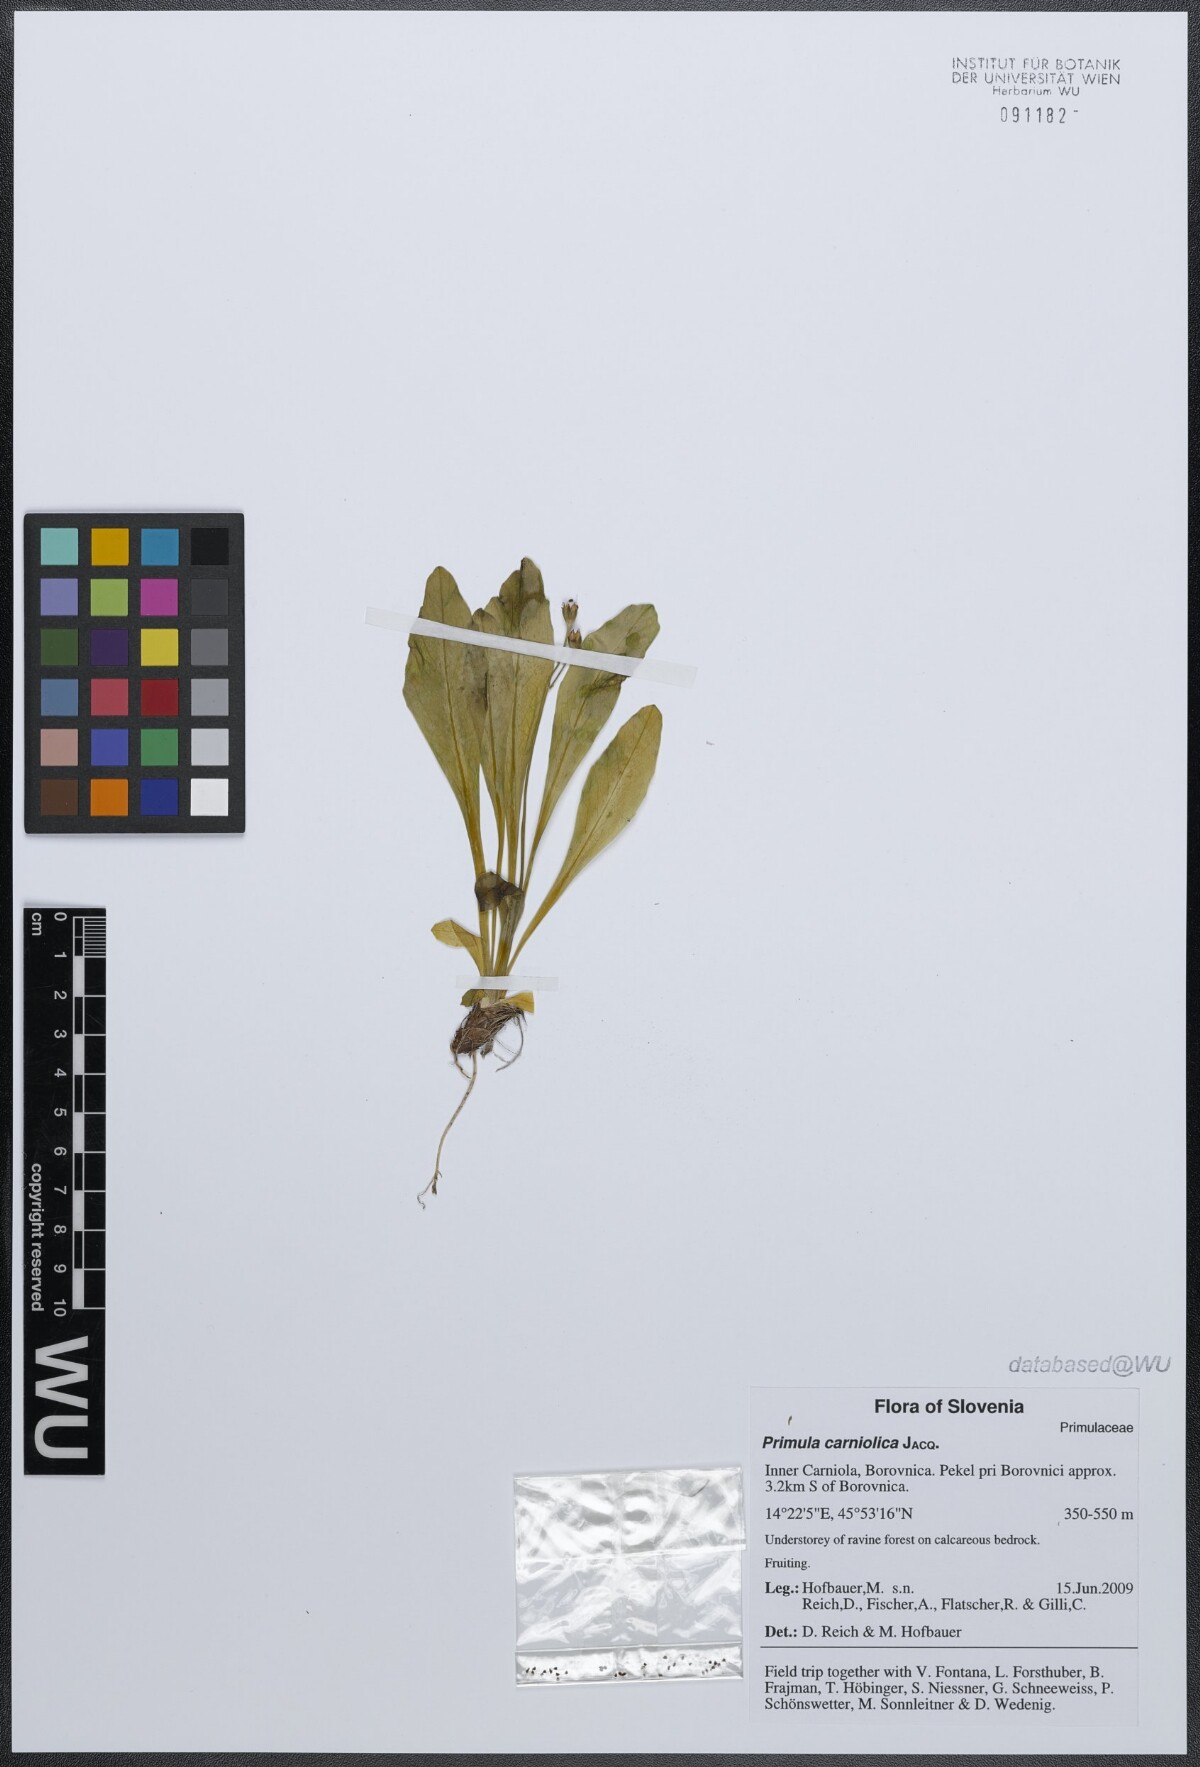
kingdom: Plantae
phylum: Tracheophyta
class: Magnoliopsida
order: Ericales
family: Primulaceae
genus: Primula
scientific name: Primula carniolica
